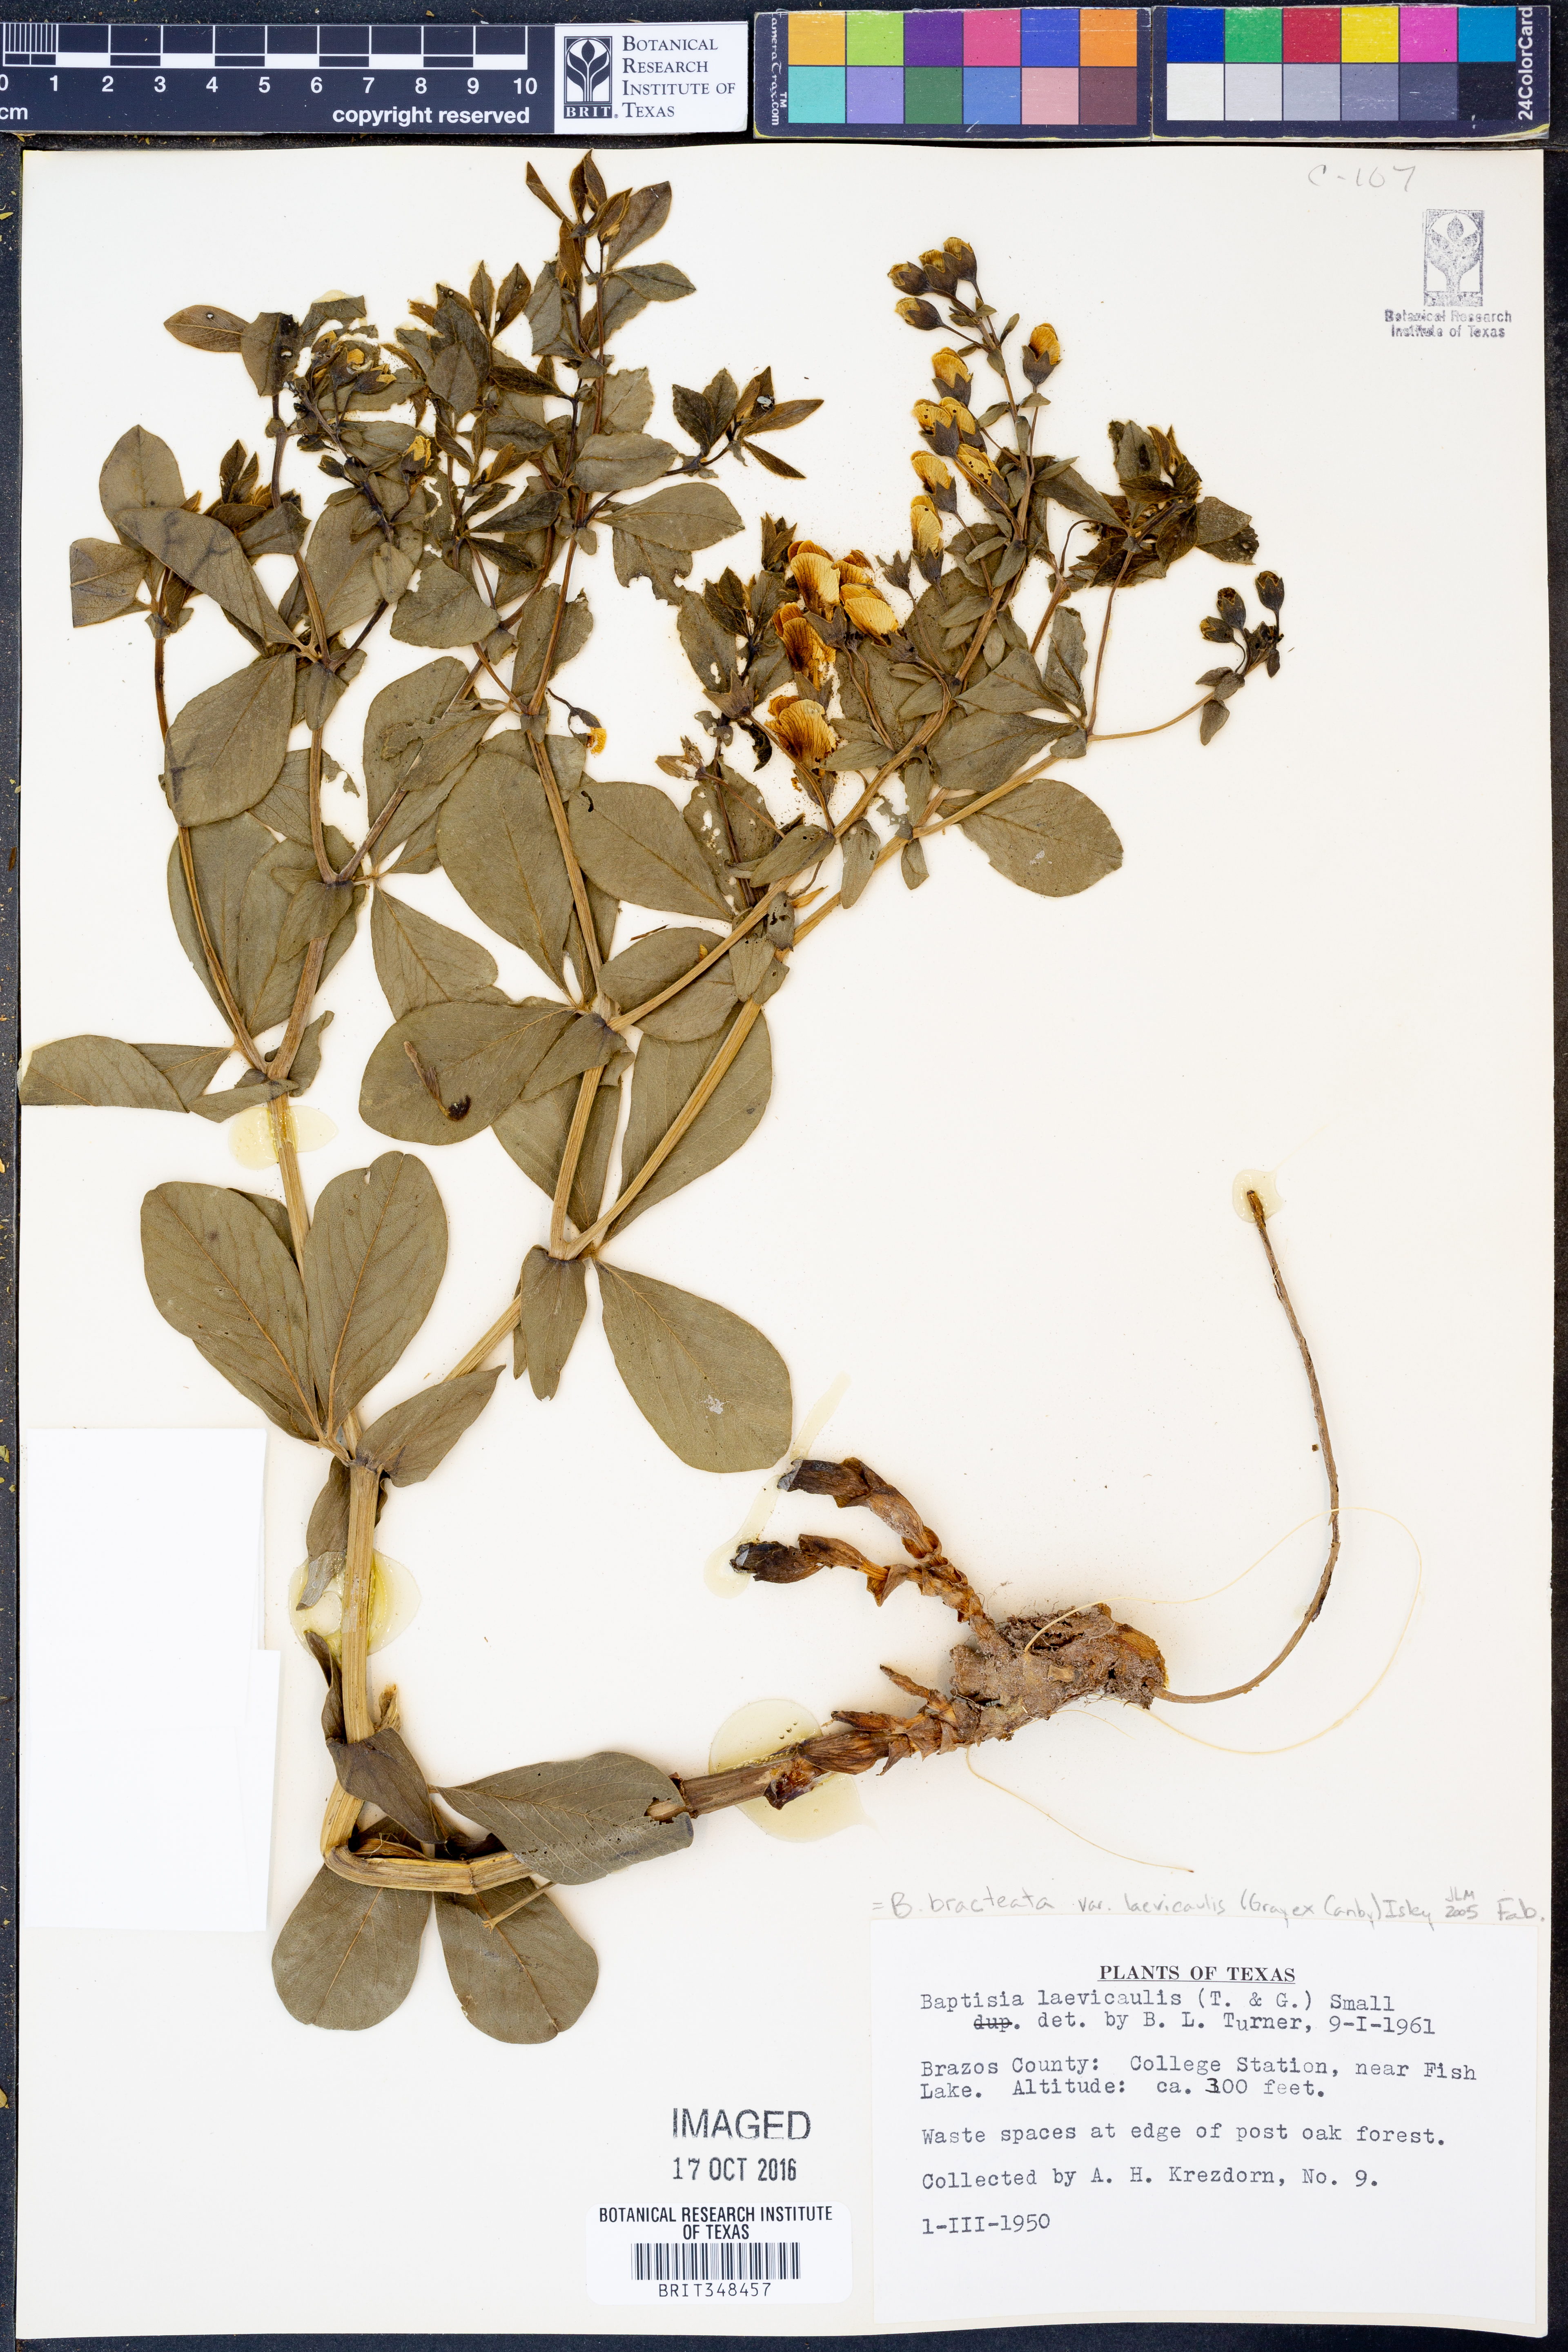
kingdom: Plantae
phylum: Tracheophyta
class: Magnoliopsida
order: Fabales
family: Fabaceae
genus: Baptisia
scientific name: Baptisia bracteata
